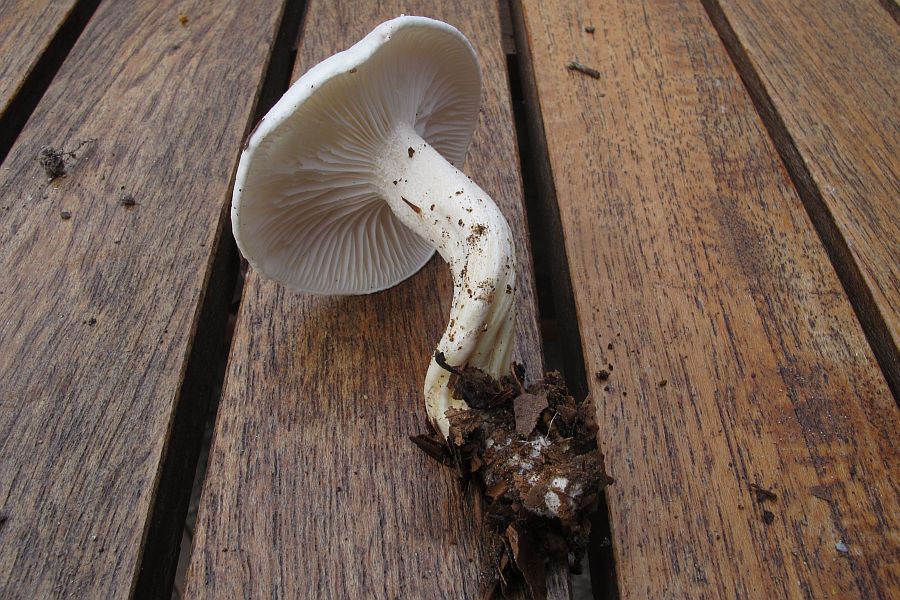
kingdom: Fungi
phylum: Basidiomycota
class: Agaricomycetes
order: Agaricales
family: Hygrophoraceae
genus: Hygrophorus
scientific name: Hygrophorus eburneus
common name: elfenbens-sneglehat
